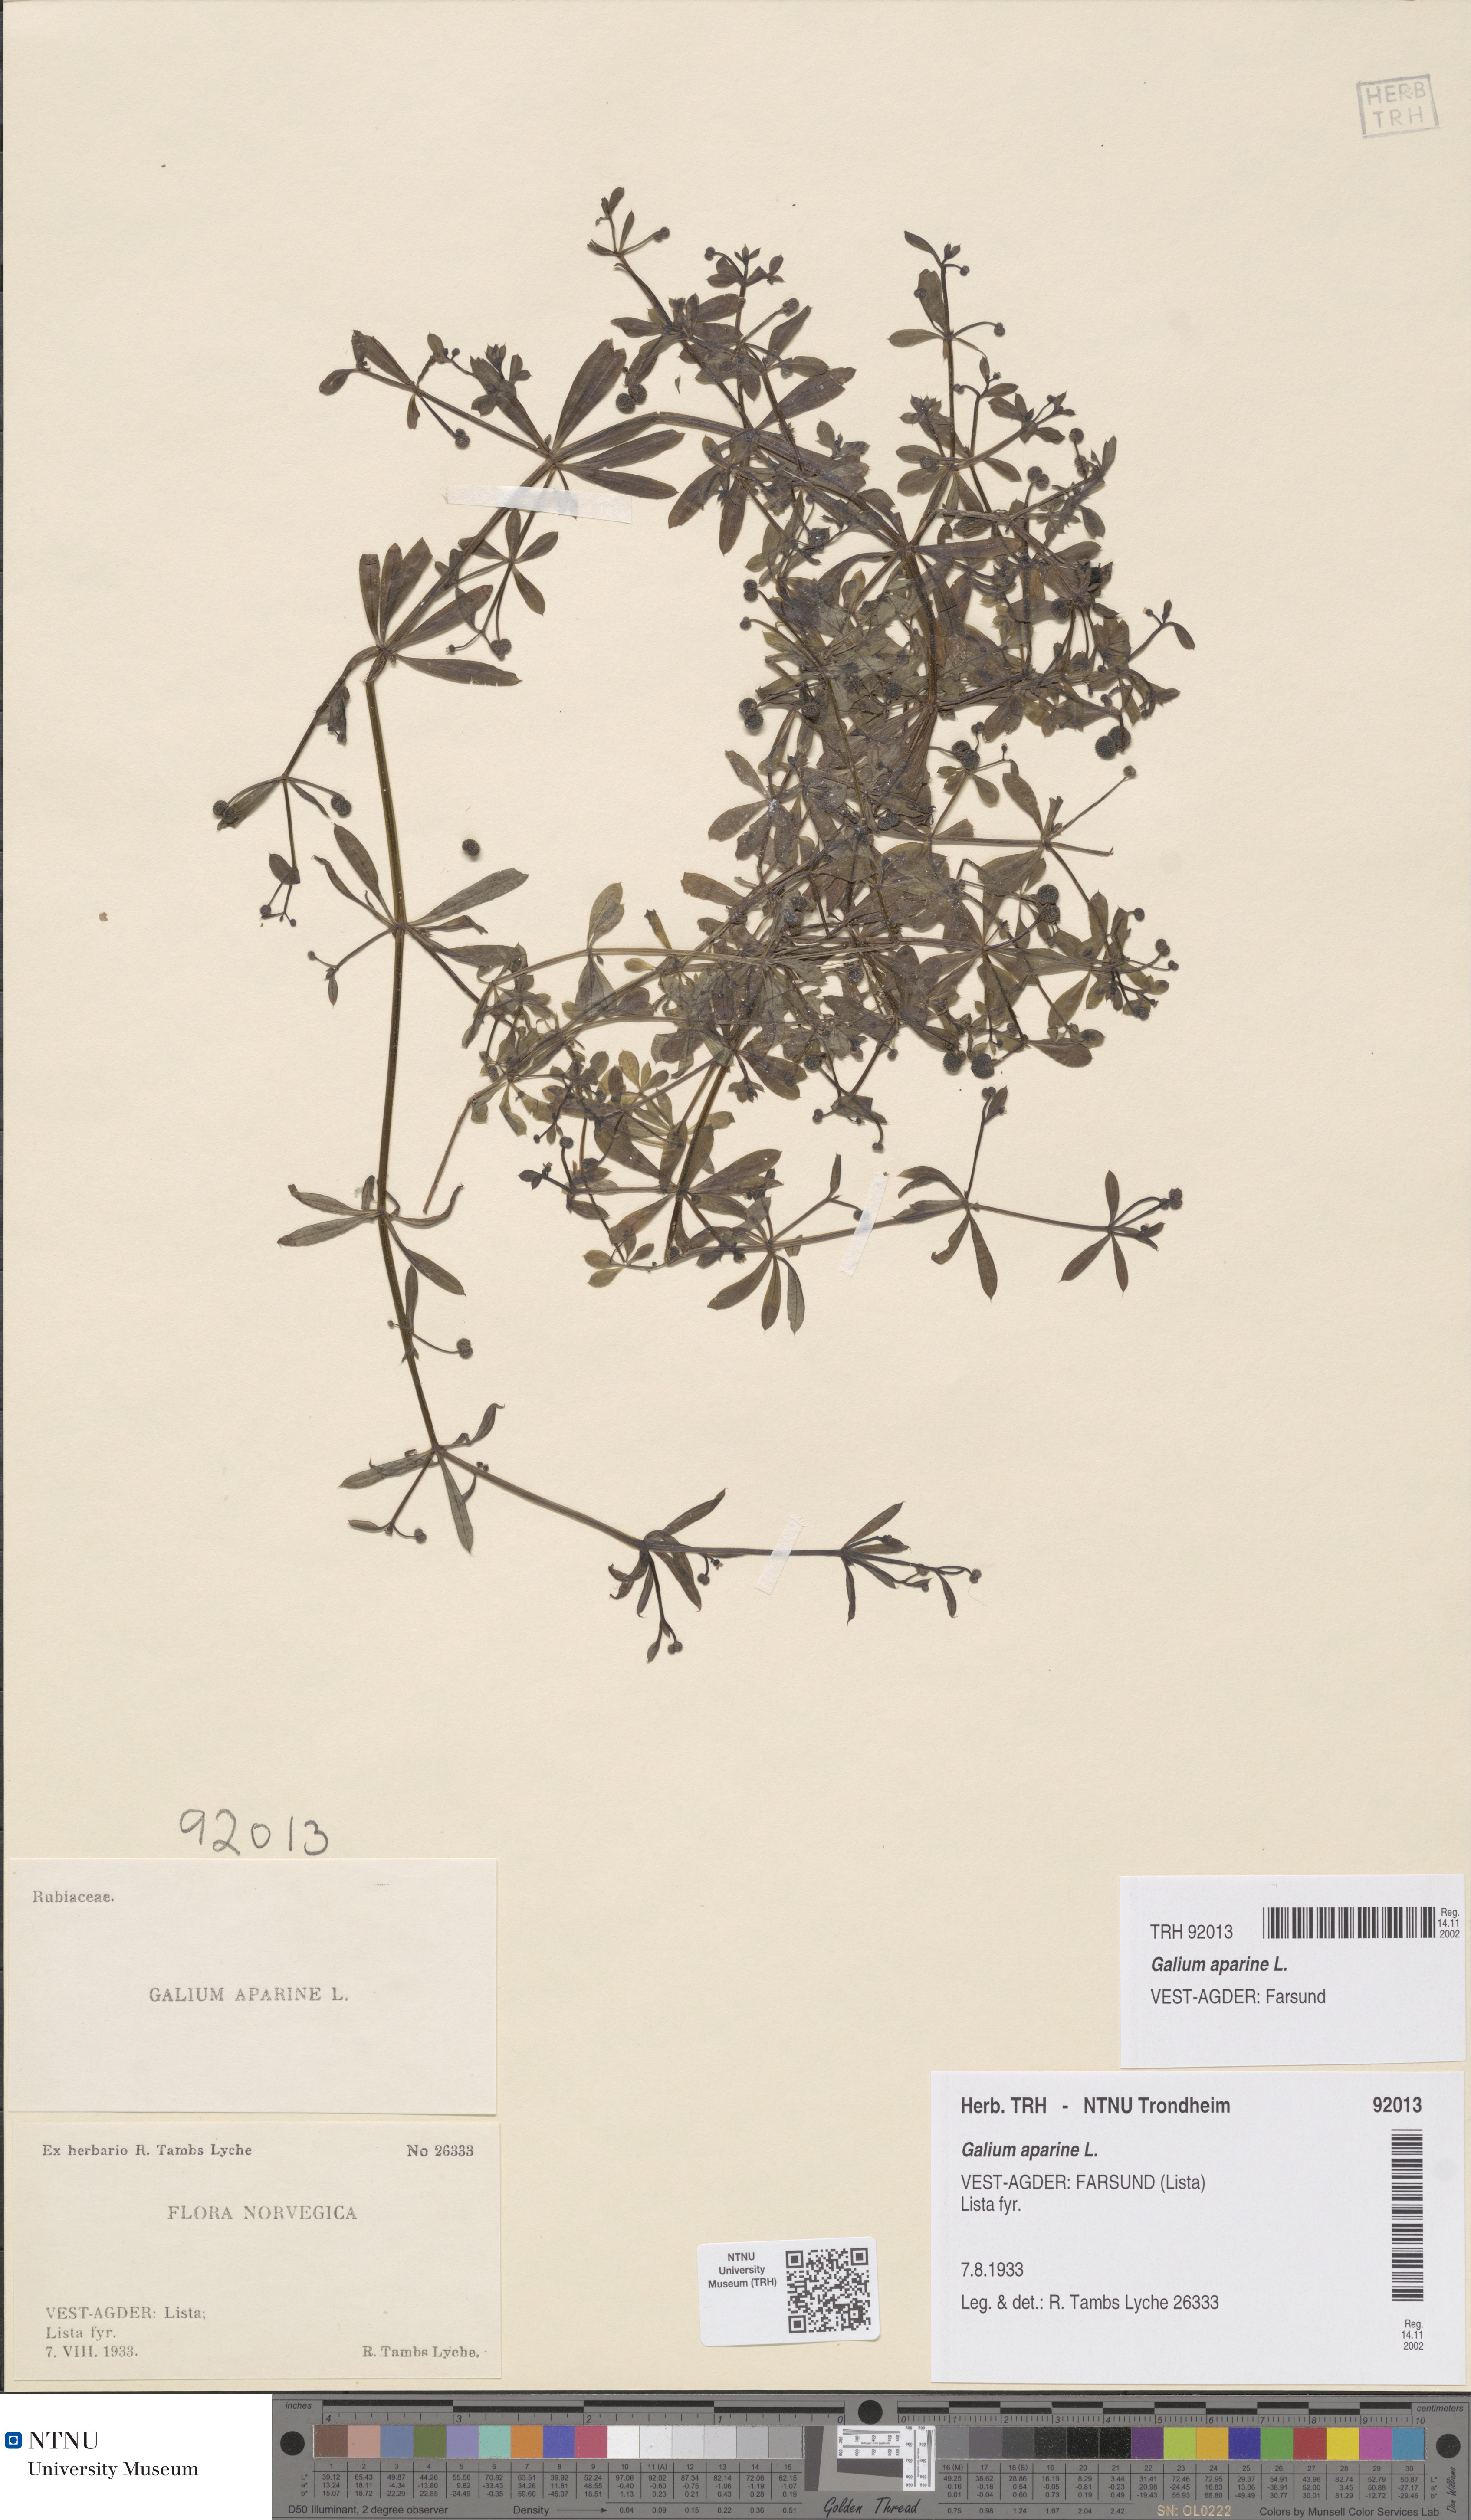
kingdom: Plantae
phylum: Tracheophyta
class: Magnoliopsida
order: Gentianales
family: Rubiaceae
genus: Galium
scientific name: Galium aparine
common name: Cleavers
